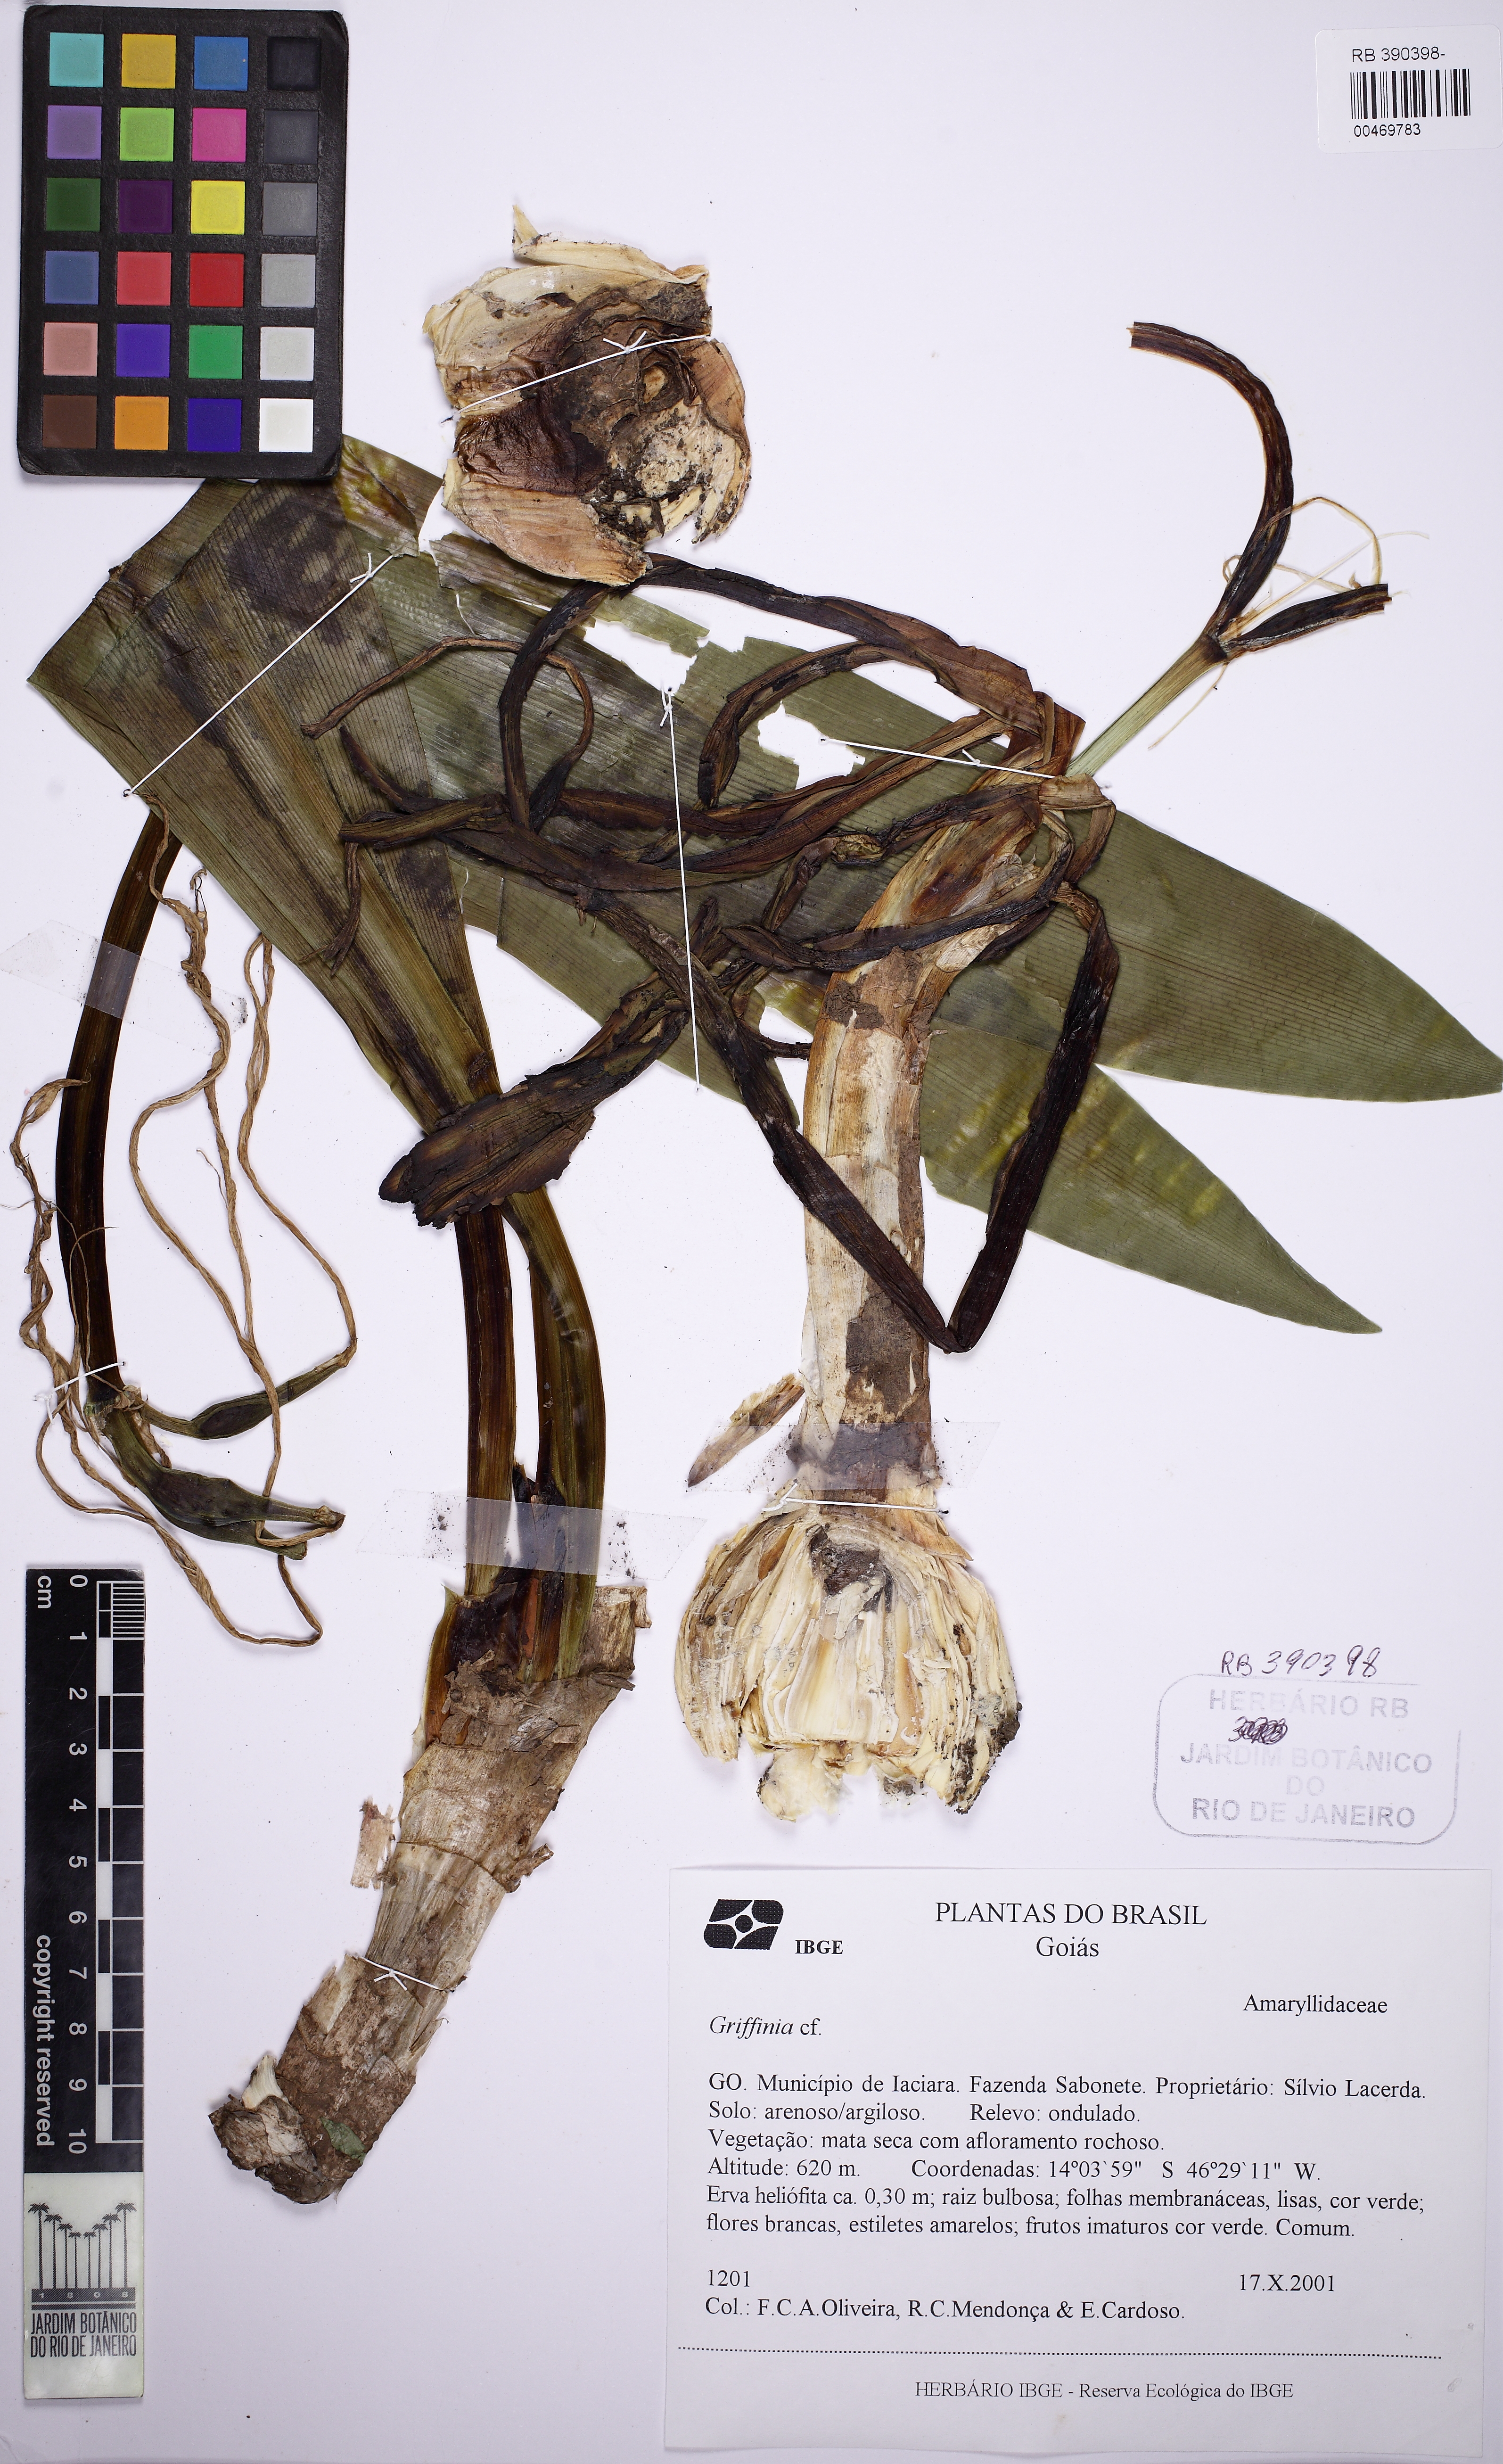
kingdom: Plantae
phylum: Tracheophyta
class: Liliopsida
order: Asparagales
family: Amaryllidaceae
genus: Griffinia
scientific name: Griffinia nocturna
